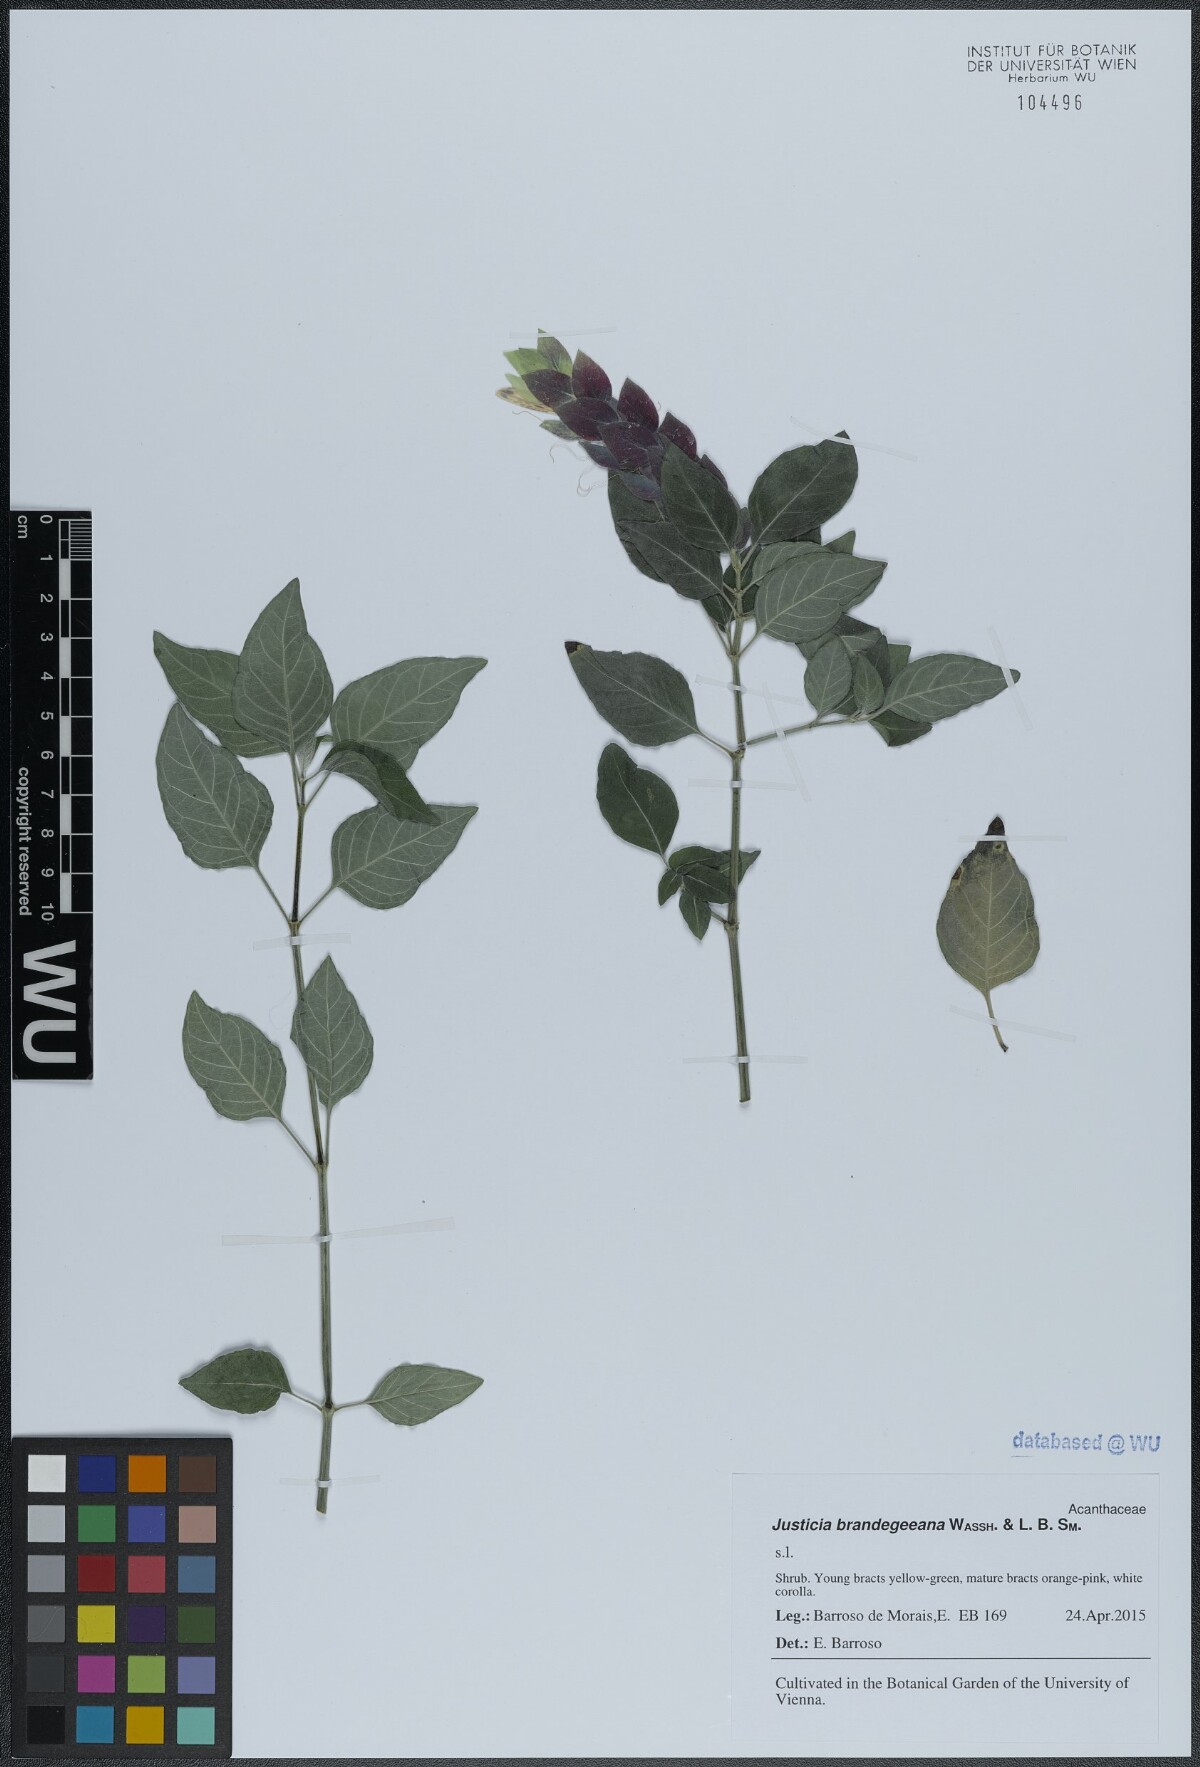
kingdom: Plantae
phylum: Tracheophyta
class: Magnoliopsida
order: Lamiales
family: Acanthaceae
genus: Justicia
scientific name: Justicia brandegeeana
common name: Shrimpplant
